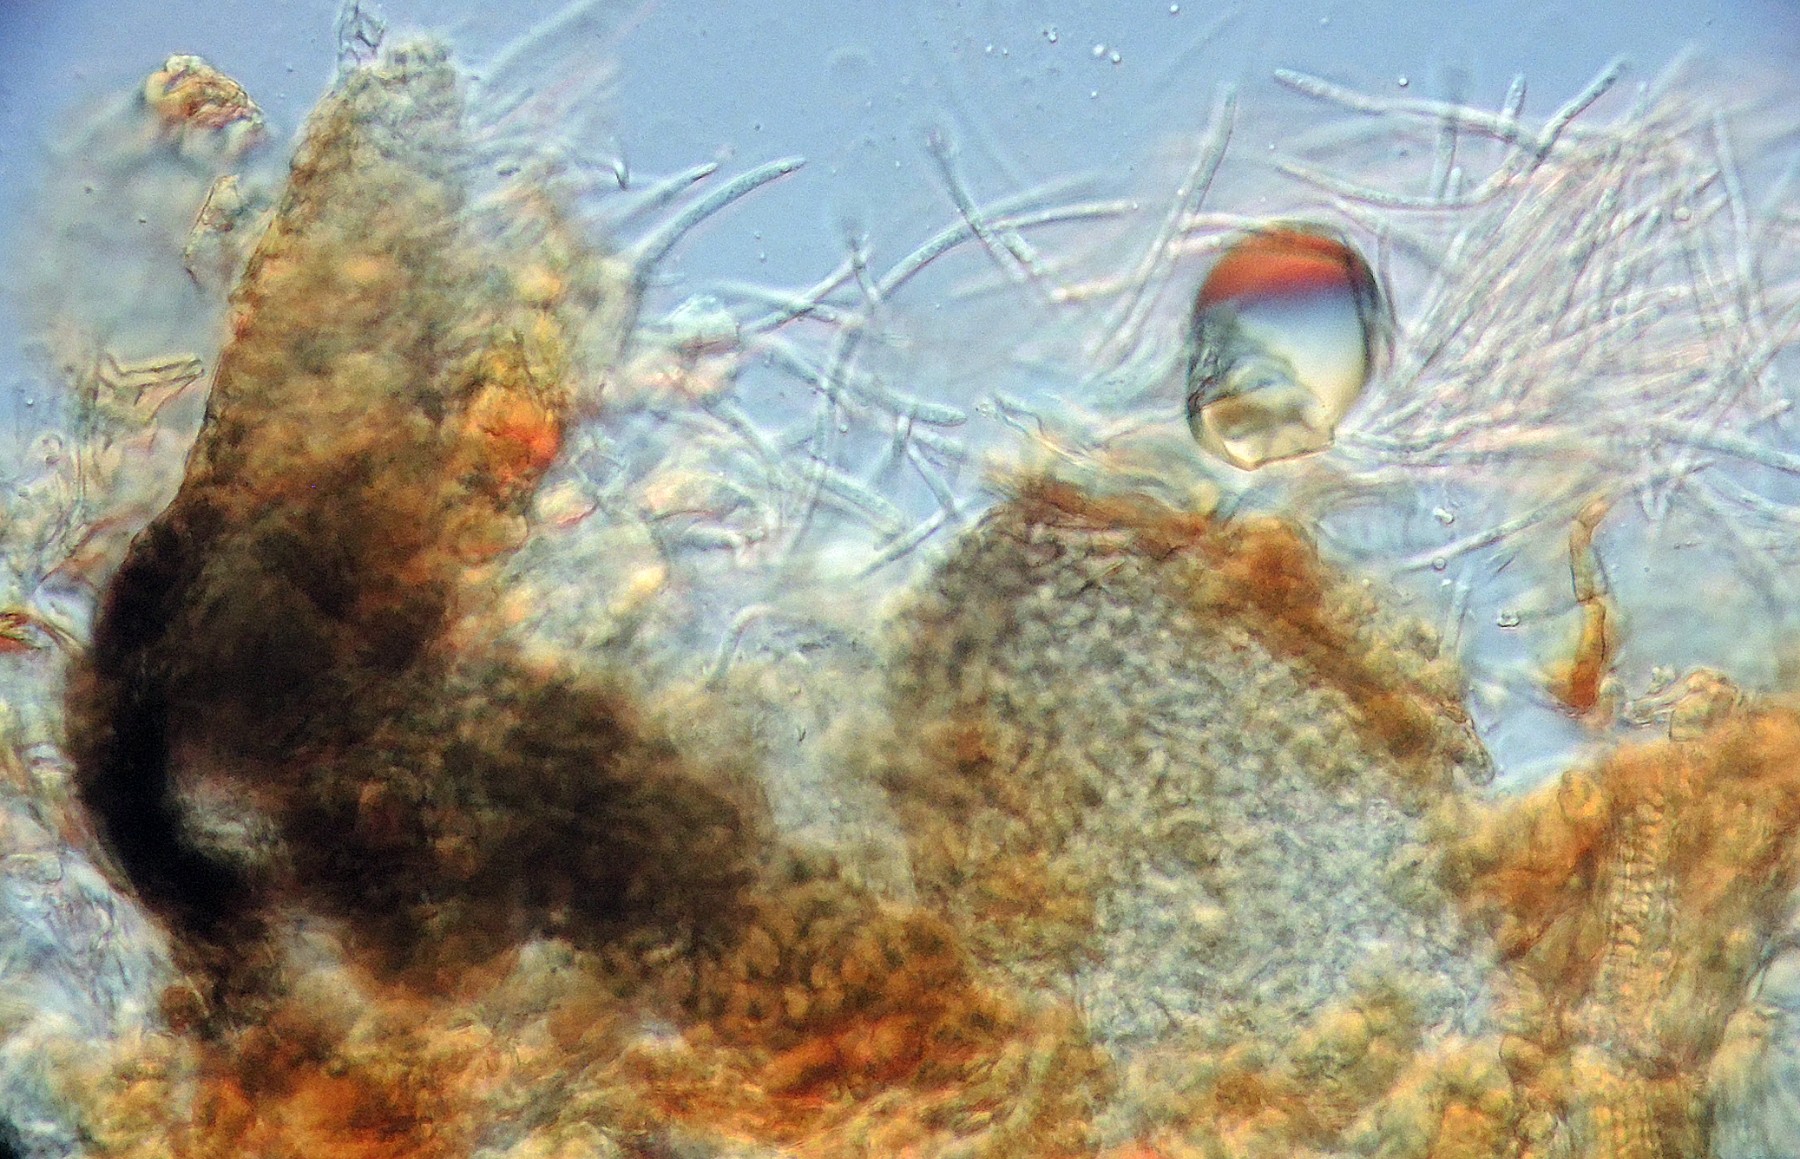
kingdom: Fungi
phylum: Ascomycota
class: Dothideomycetes
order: Mycosphaerellales
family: Mycosphaerellaceae
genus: Septoria
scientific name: Septoria bellidis
